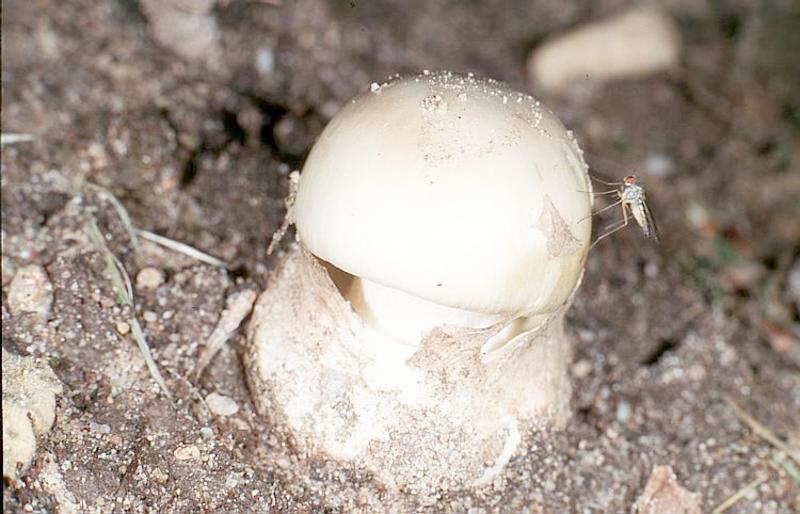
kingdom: Fungi
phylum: Basidiomycota
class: Agaricomycetes
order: Agaricales
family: Amanitaceae
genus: Amanita
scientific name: Amanita phalloides
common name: Death cap
